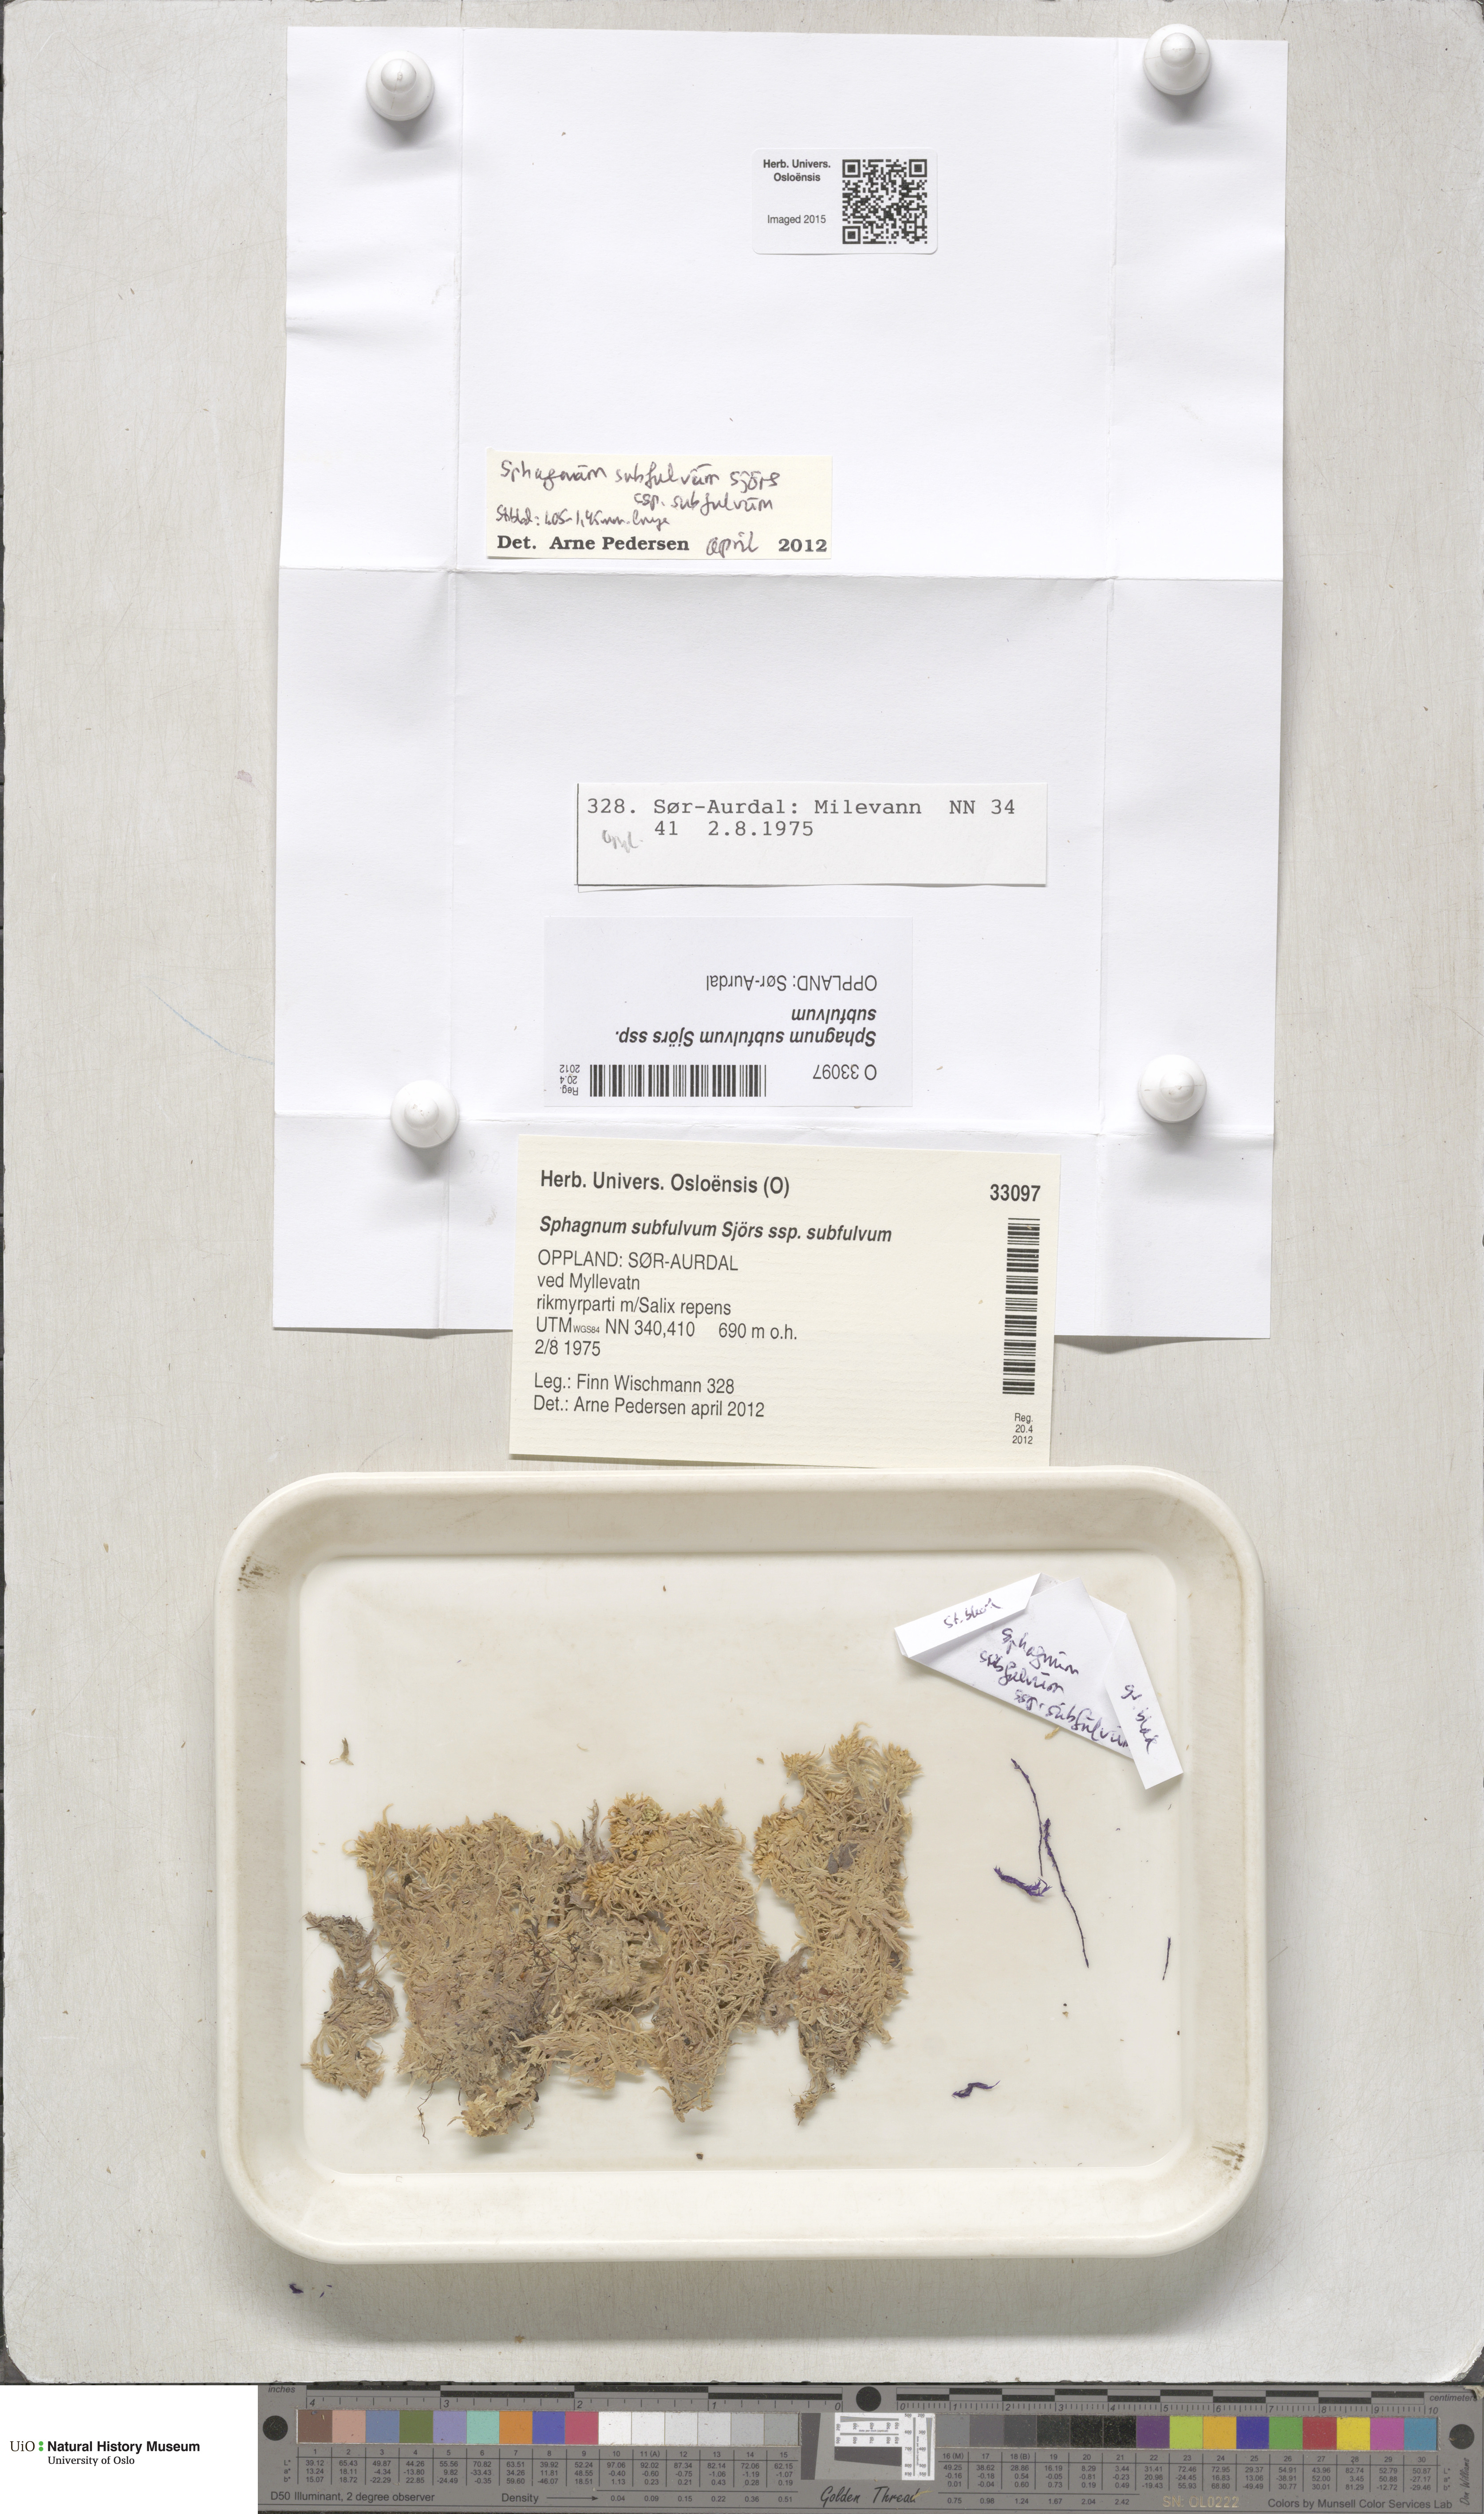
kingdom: Plantae
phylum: Bryophyta
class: Sphagnopsida
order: Sphagnales
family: Sphagnaceae
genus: Sphagnum
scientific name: Sphagnum subfulvum
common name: Fulvous peat moss
